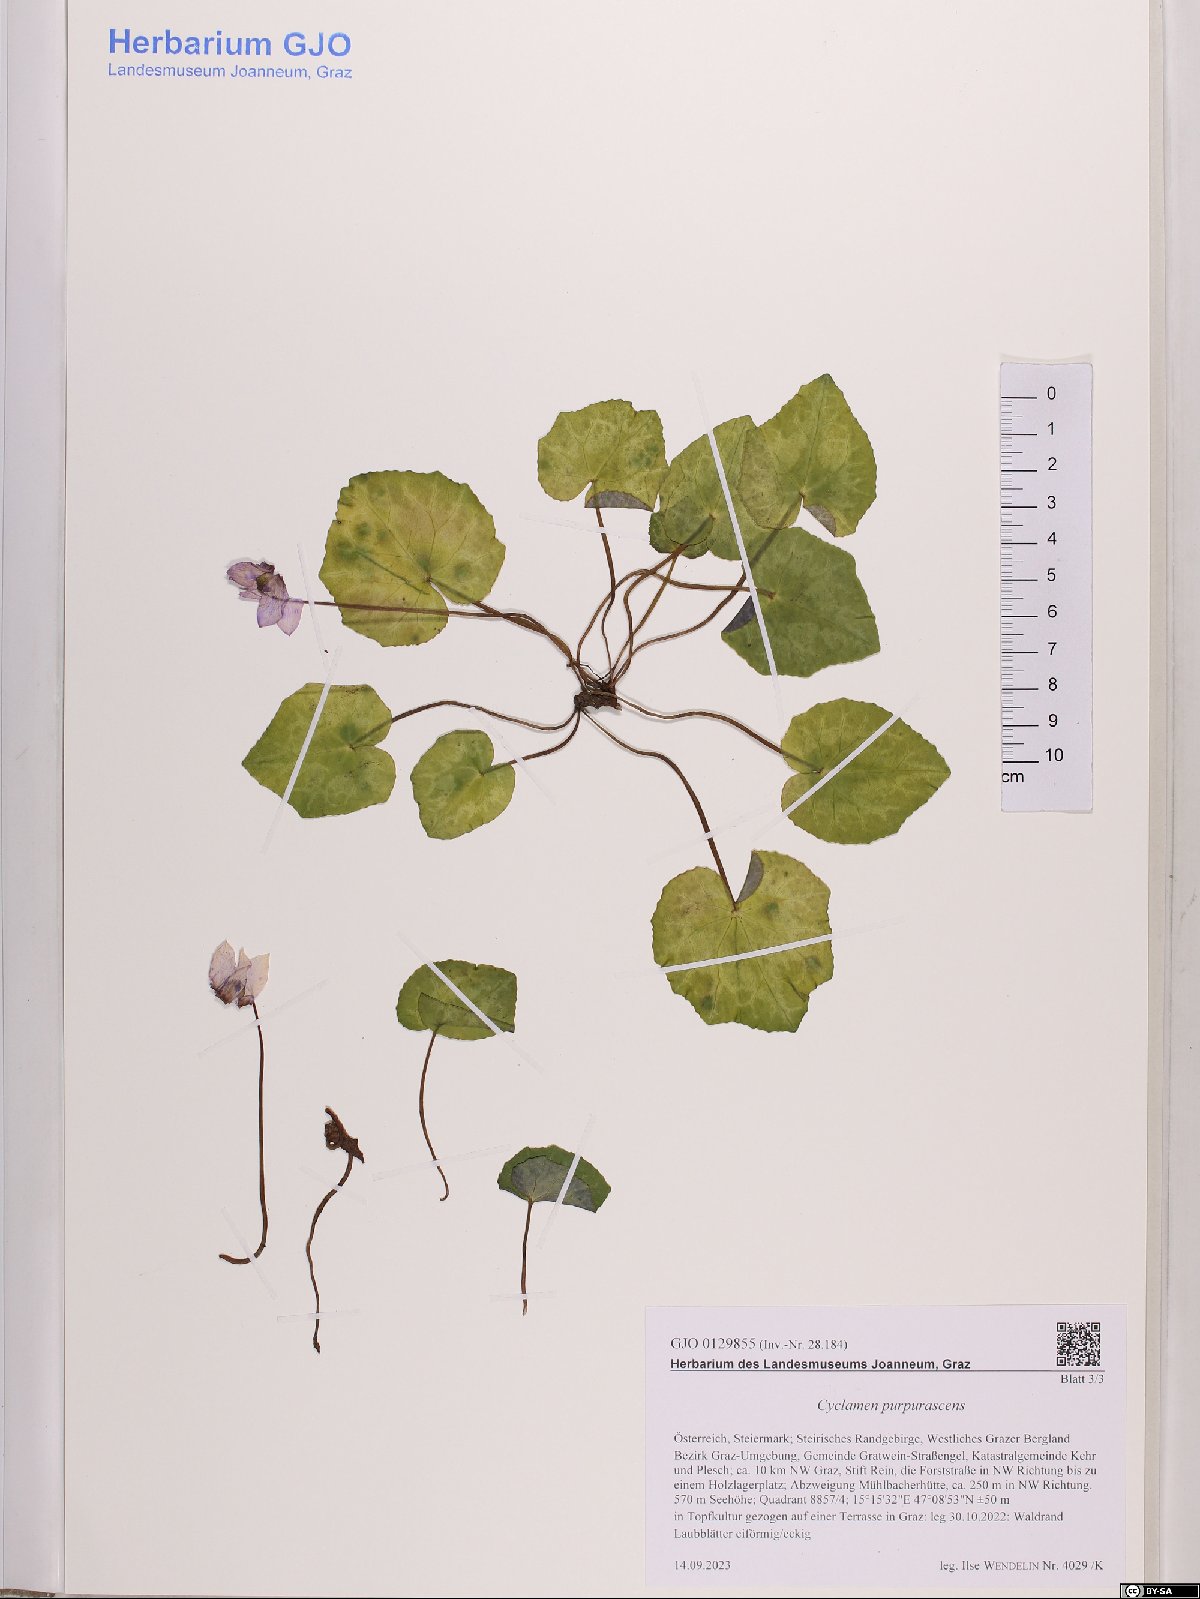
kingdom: Plantae
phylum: Tracheophyta
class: Magnoliopsida
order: Ericales
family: Primulaceae
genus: Cyclamen
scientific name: Cyclamen purpurascens
